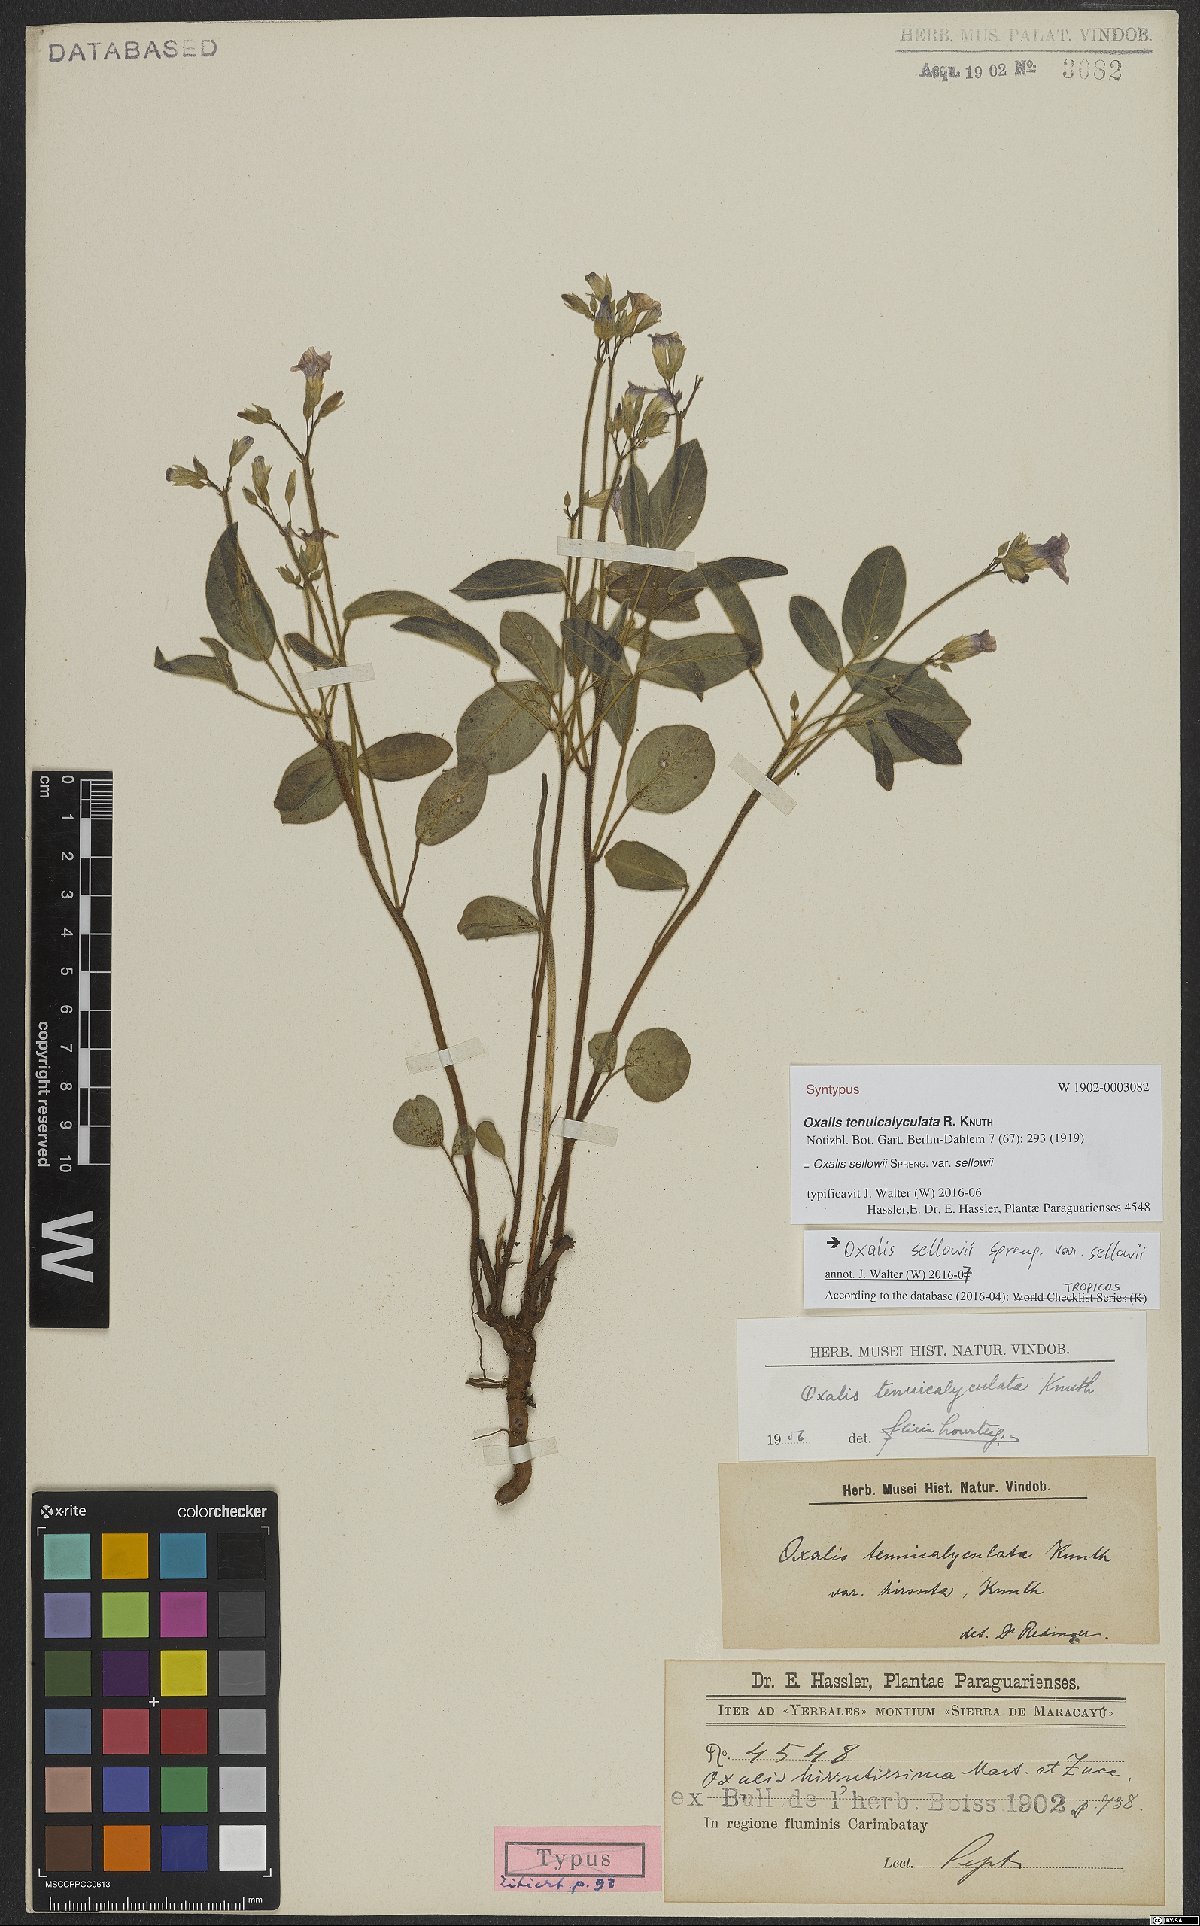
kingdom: Plantae
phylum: Tracheophyta
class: Magnoliopsida
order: Oxalidales
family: Oxalidaceae
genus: Oxalis
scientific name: Oxalis sellowii
